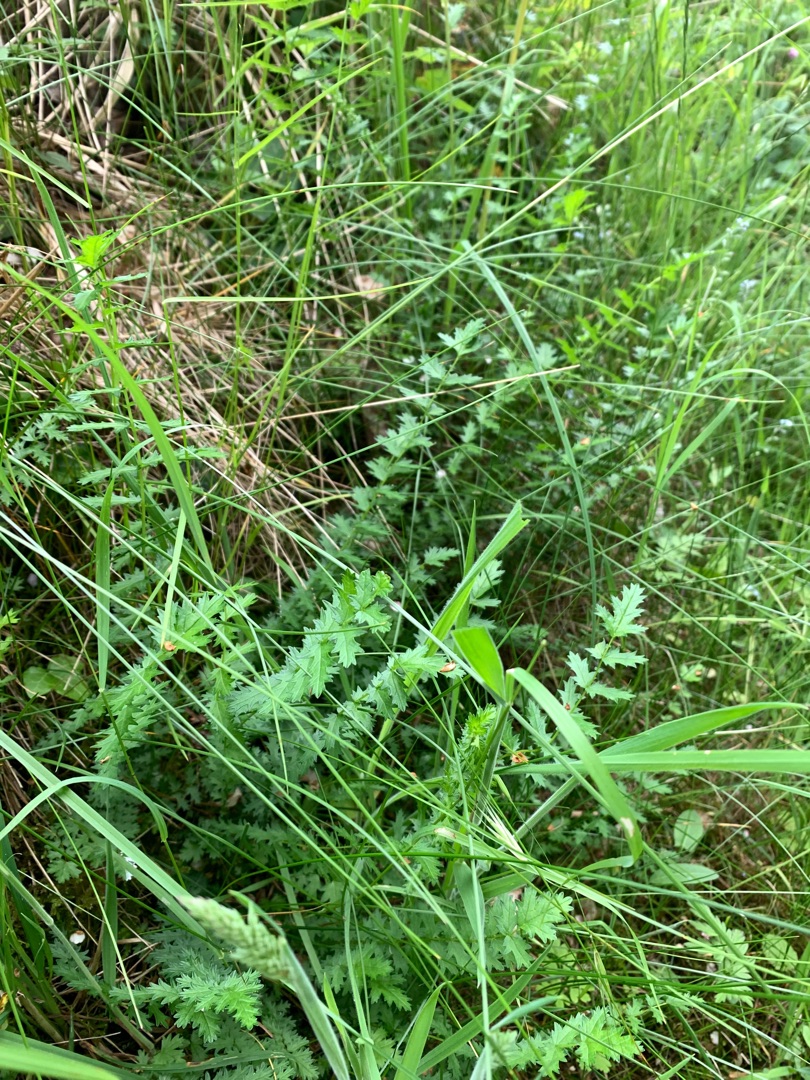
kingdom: Plantae
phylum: Tracheophyta
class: Magnoliopsida
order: Rosales
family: Rosaceae
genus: Filipendula
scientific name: Filipendula vulgaris
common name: Knoldet mjødurt
